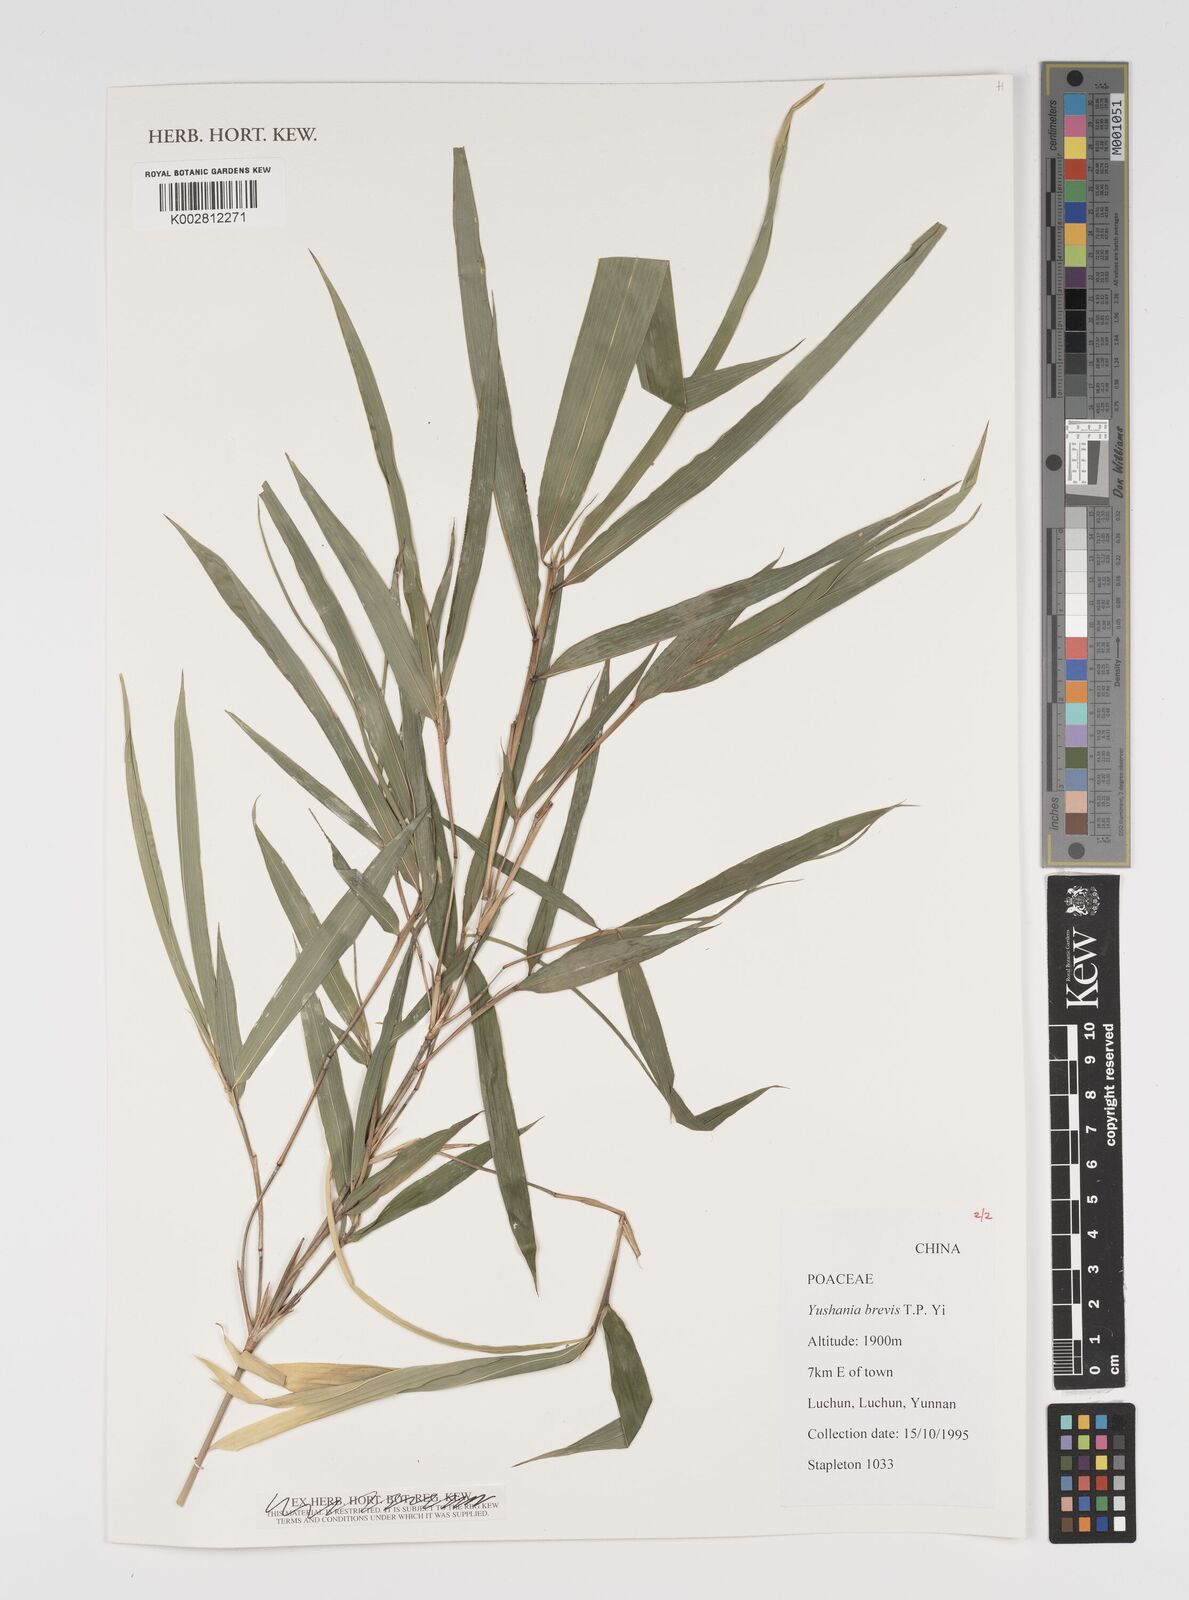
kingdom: Plantae
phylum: Tracheophyta
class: Liliopsida
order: Poales
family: Poaceae
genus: Yushania
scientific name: Yushania brevis
